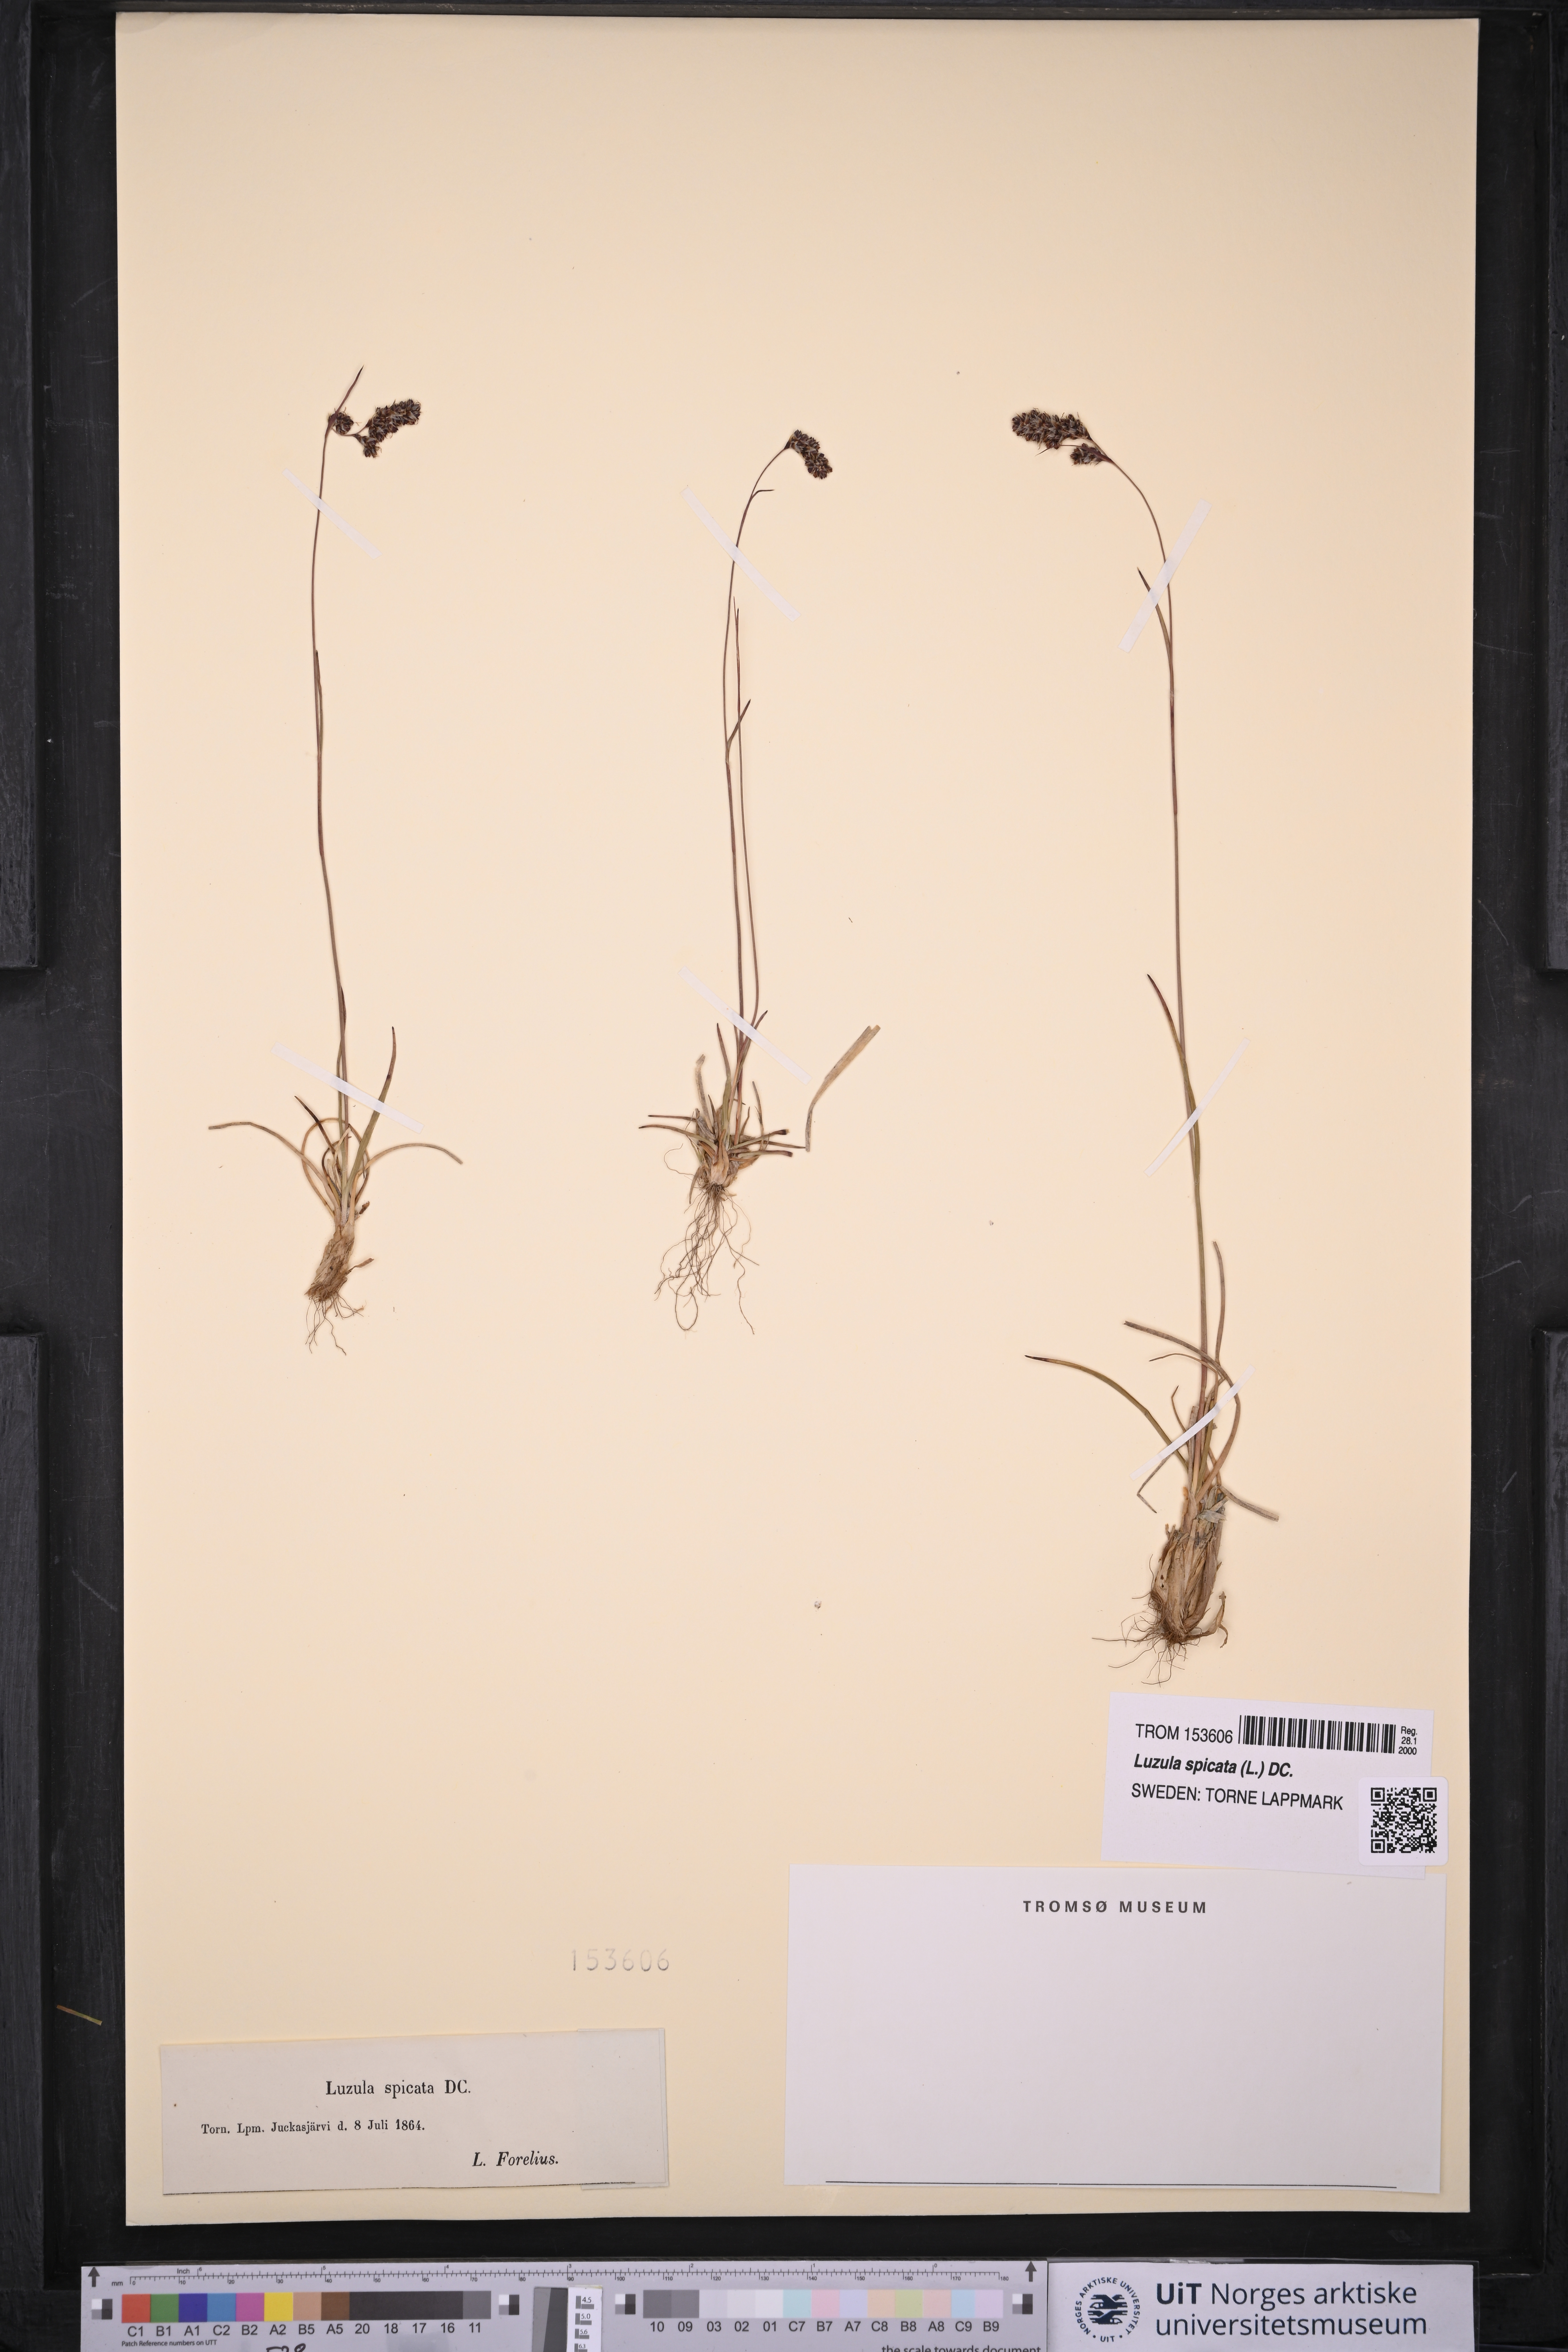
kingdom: Plantae
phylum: Tracheophyta
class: Liliopsida
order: Poales
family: Juncaceae
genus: Luzula
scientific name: Luzula spicata
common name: Spiked wood-rush
